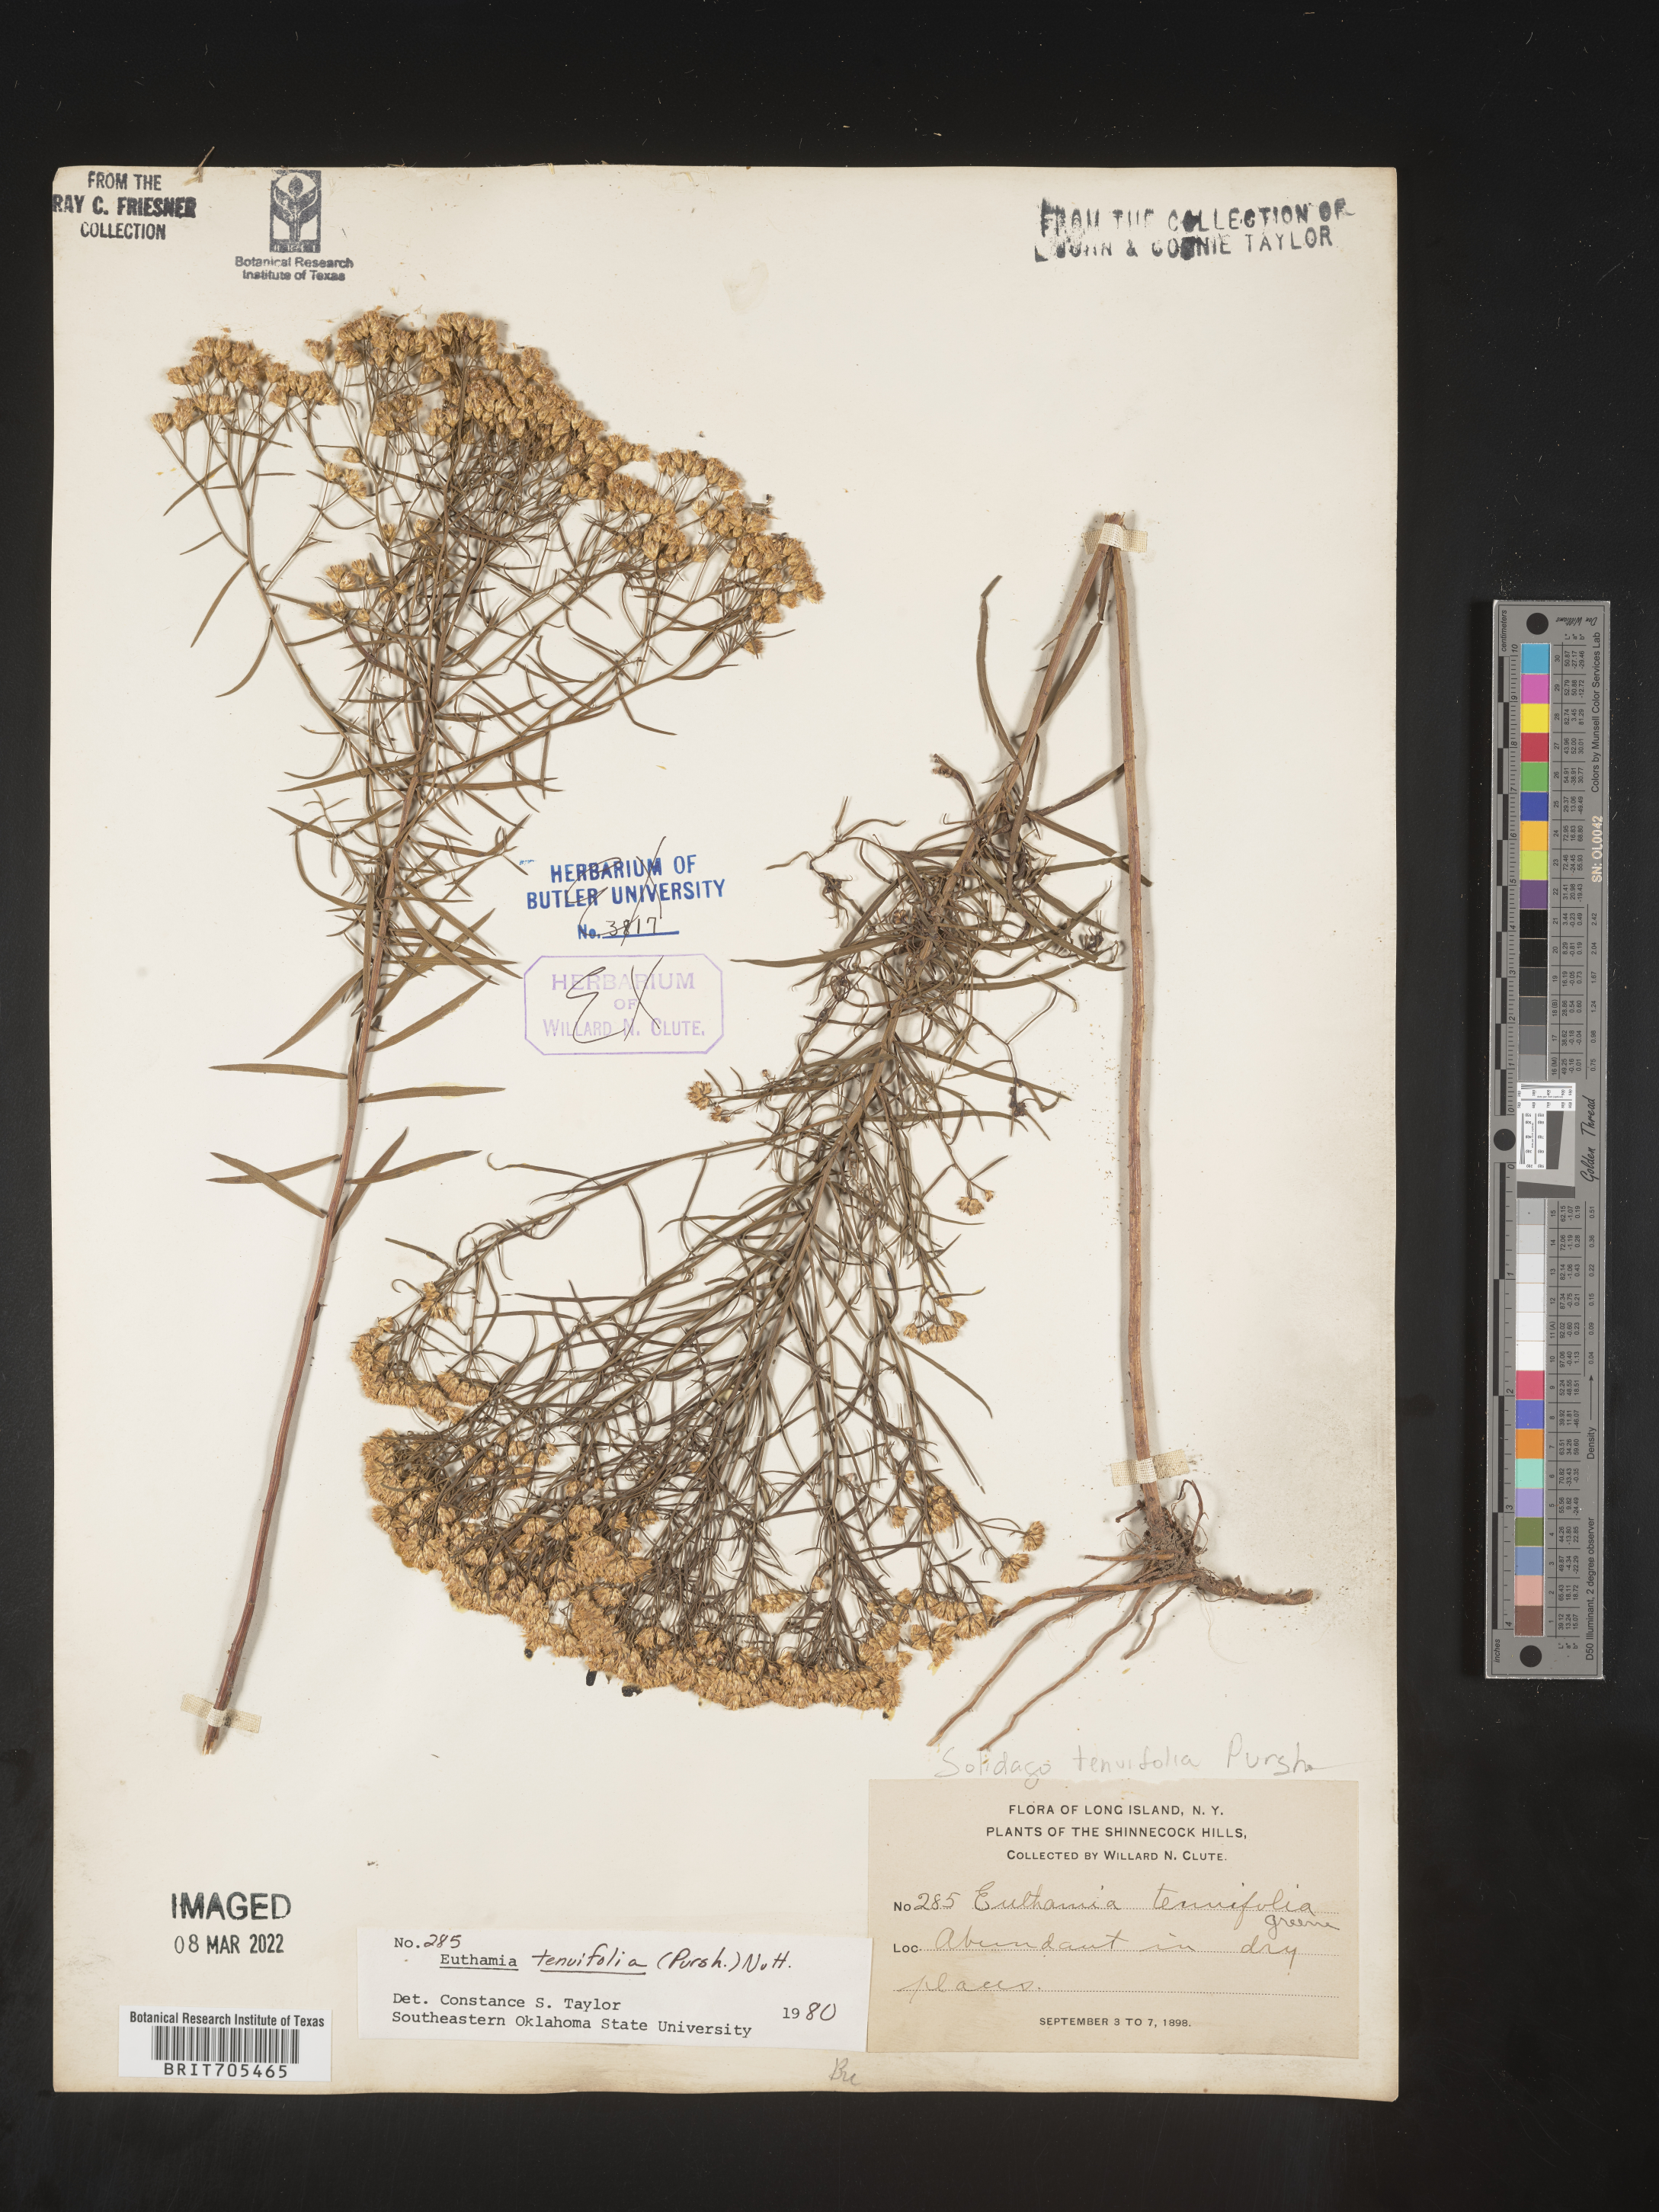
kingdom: Plantae
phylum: Tracheophyta
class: Magnoliopsida
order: Asterales
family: Asteraceae
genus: Euthamia
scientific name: Euthamia caroliniana
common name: Coastal plain goldentop
